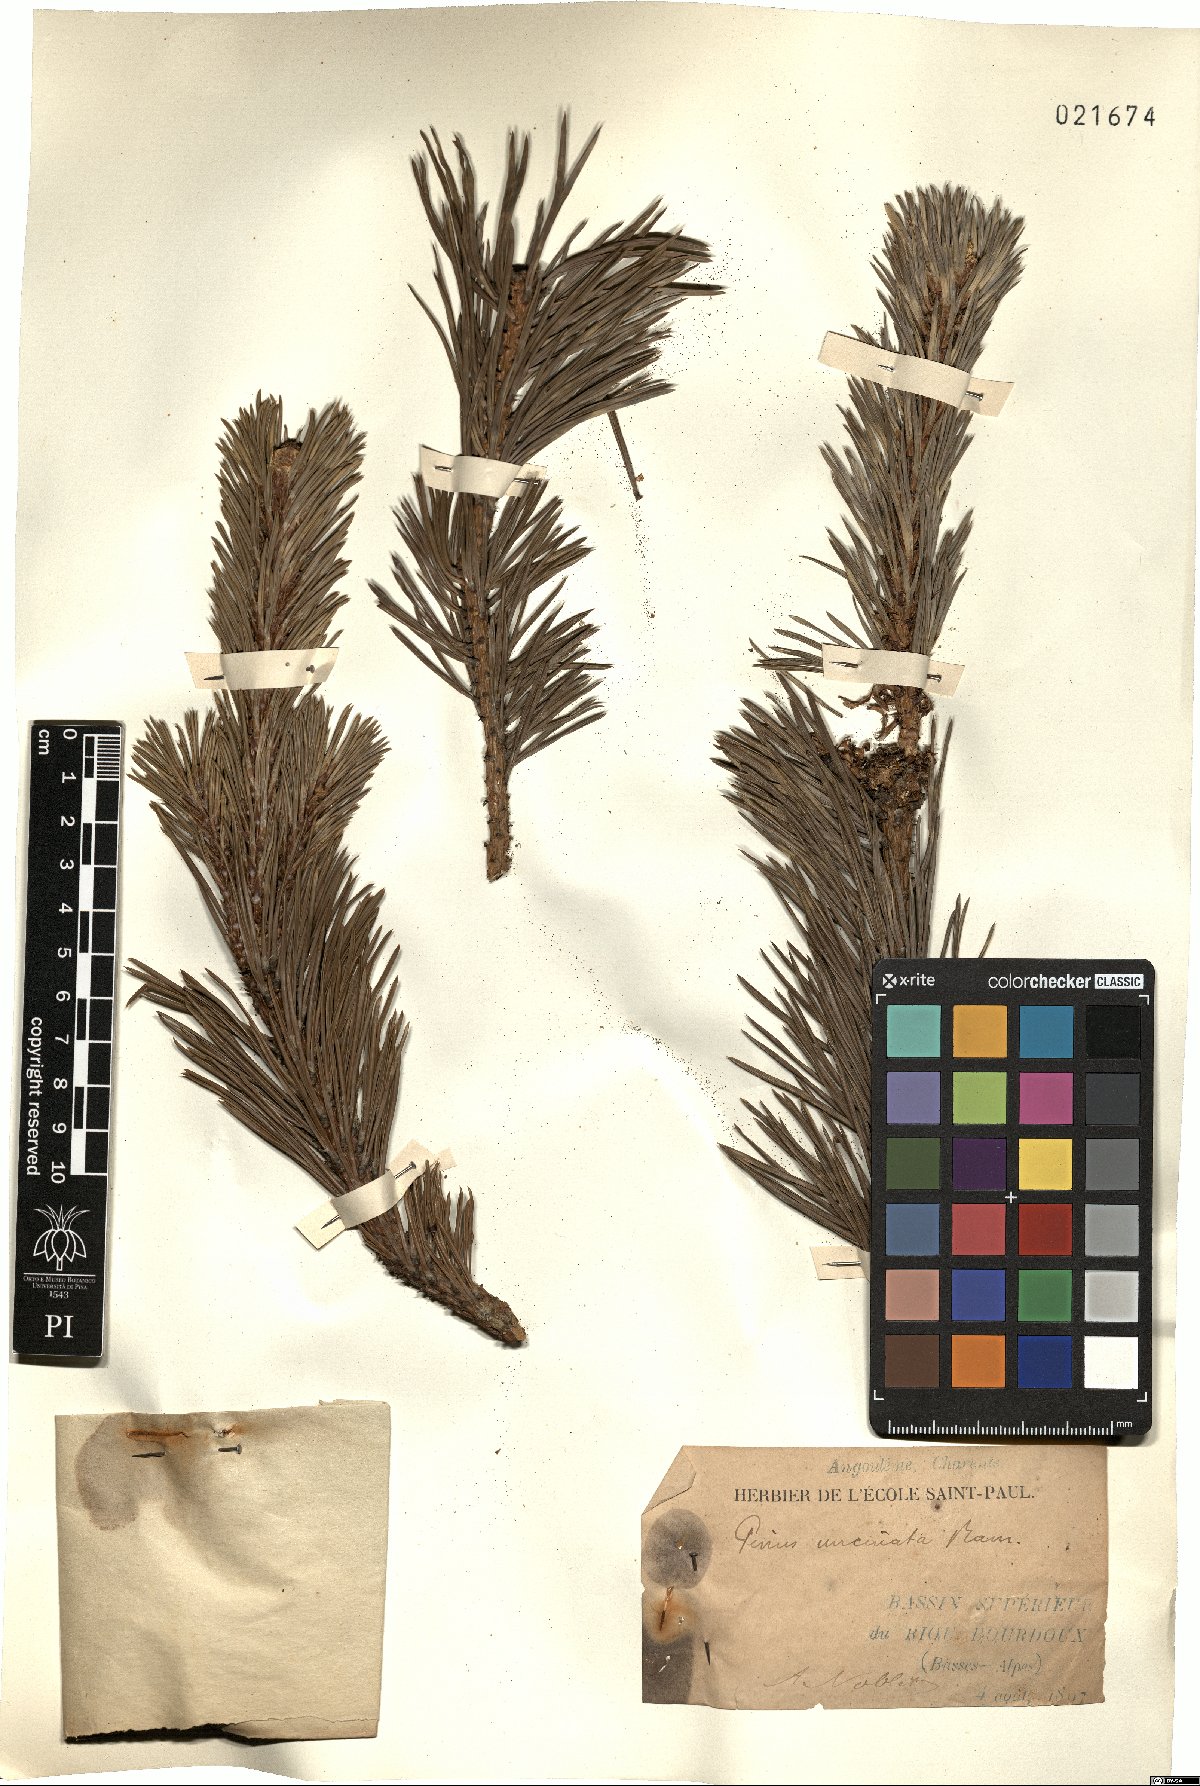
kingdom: Plantae
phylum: Tracheophyta
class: Pinopsida
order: Pinales
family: Pinaceae
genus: Pinus
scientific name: Pinus uncinata
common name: Mountain pine
